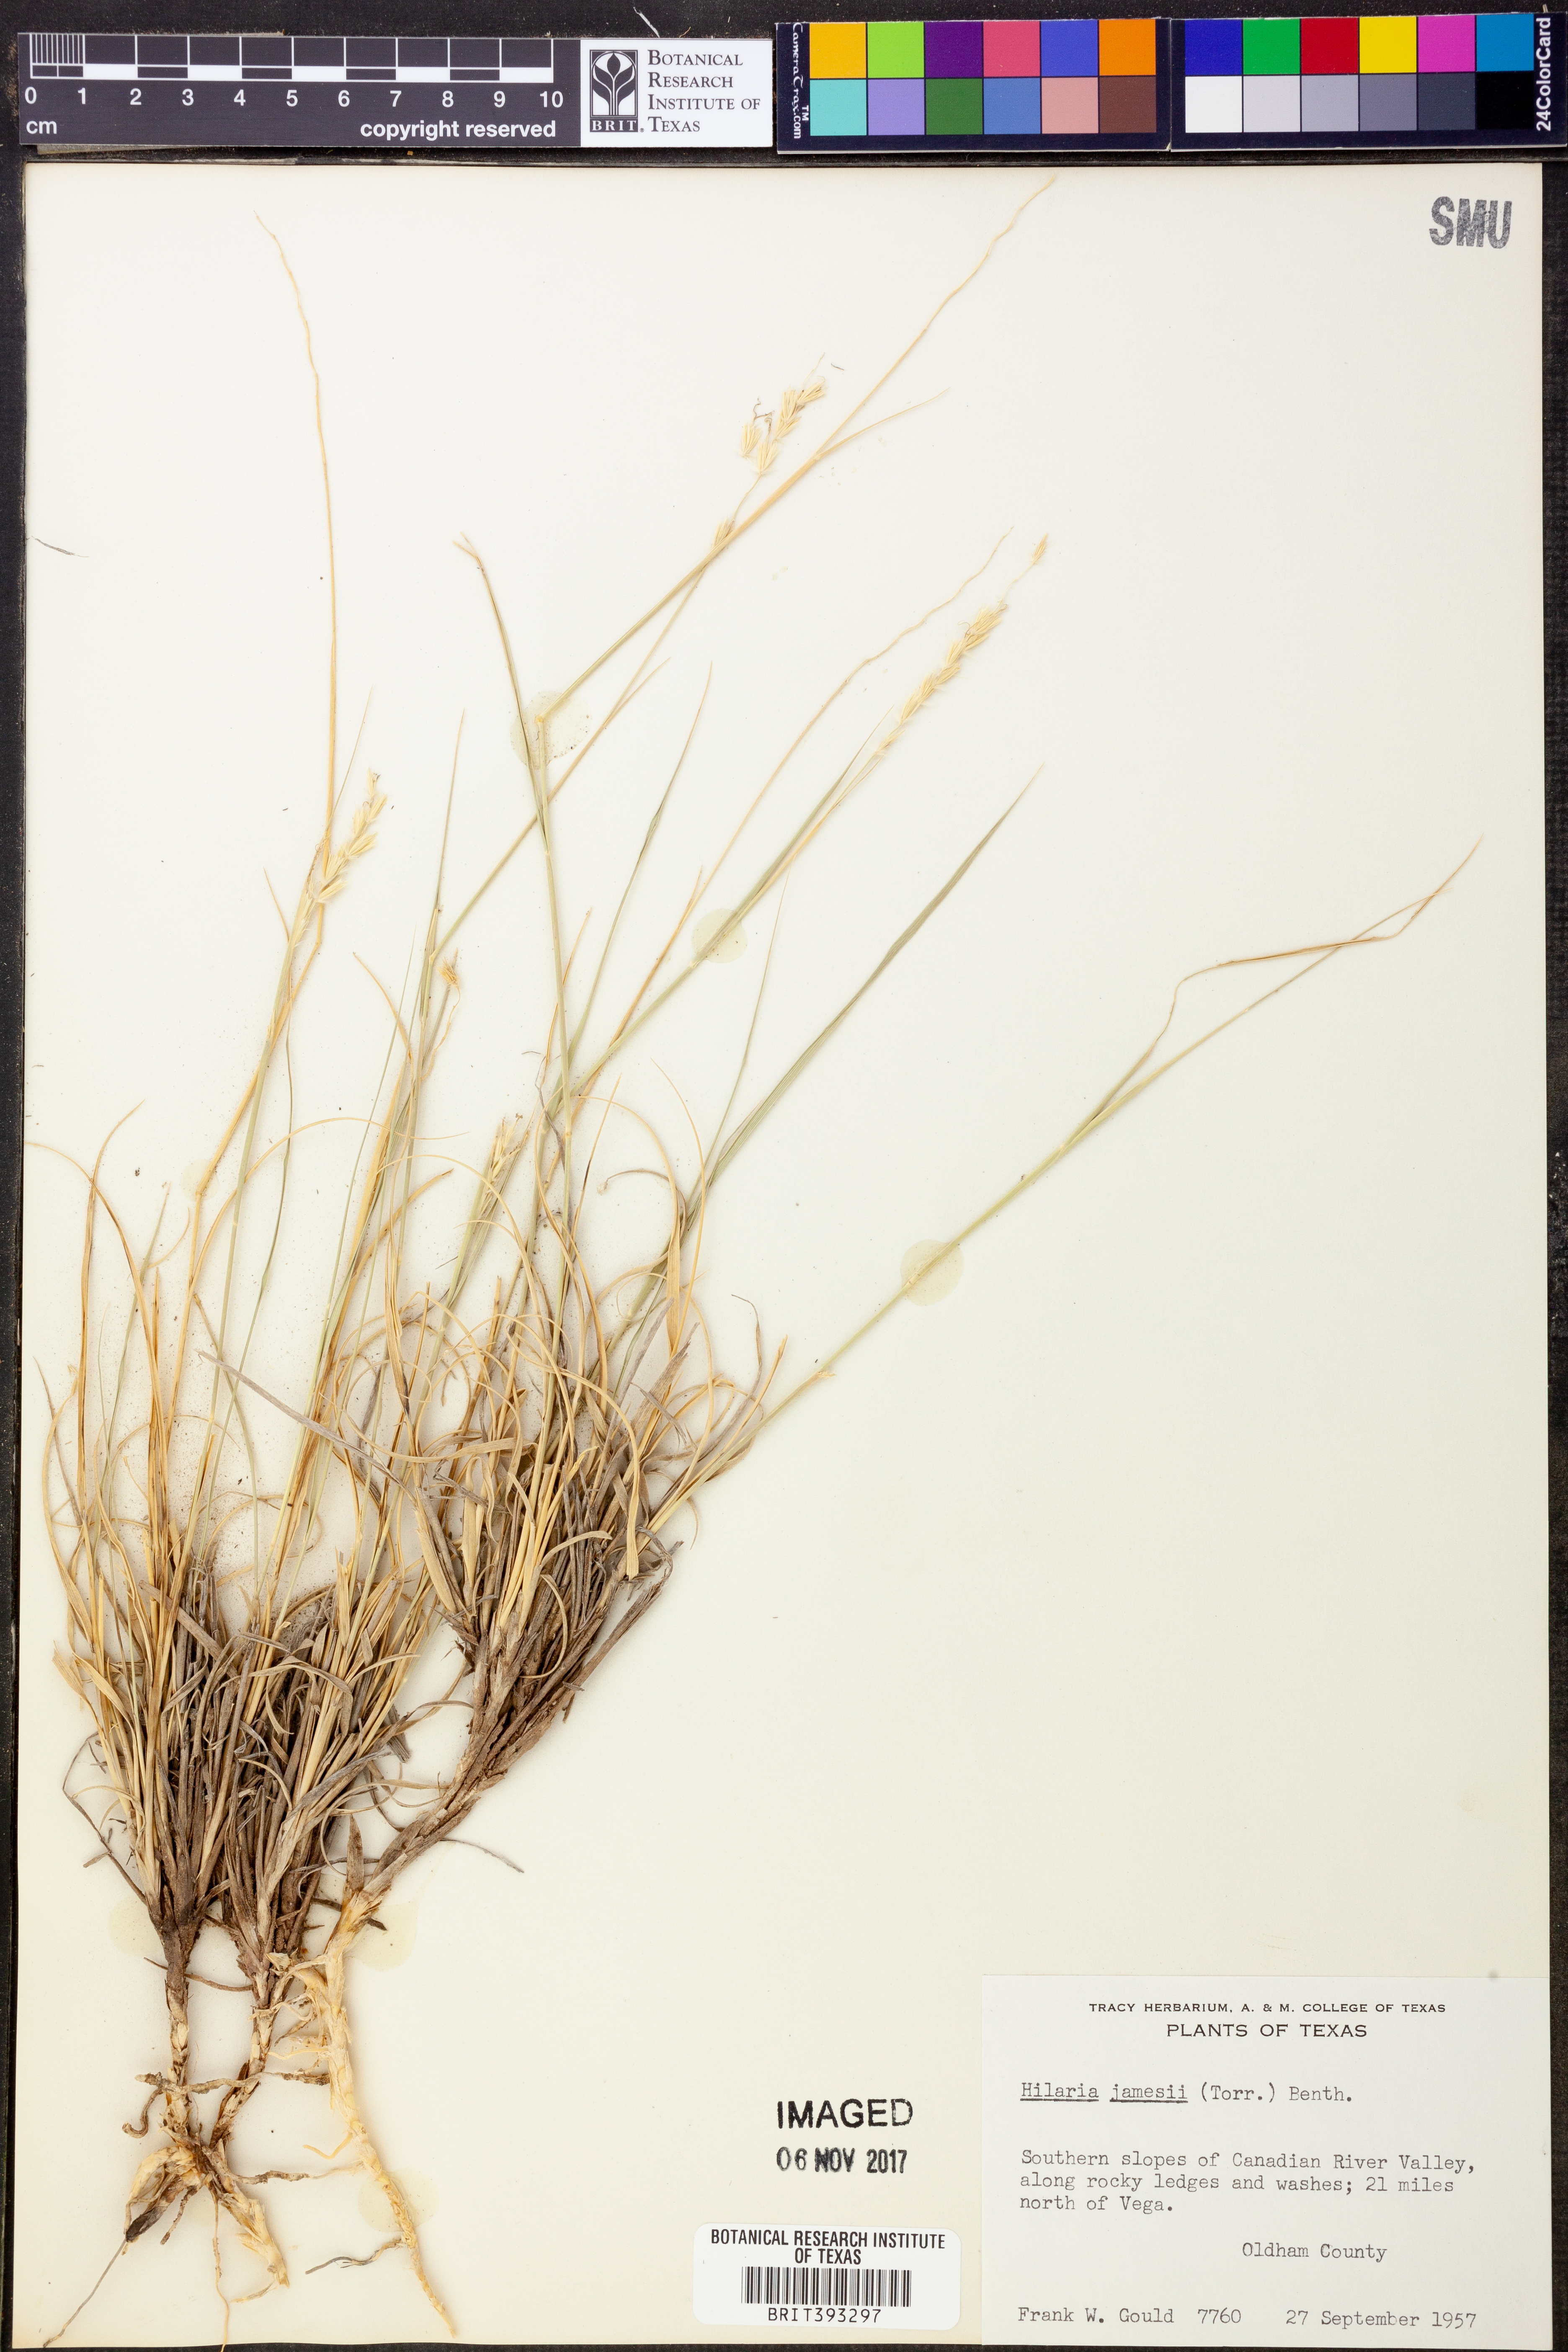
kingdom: Plantae
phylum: Tracheophyta
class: Liliopsida
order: Poales
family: Poaceae
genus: Hilaria
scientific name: Hilaria jamesii
